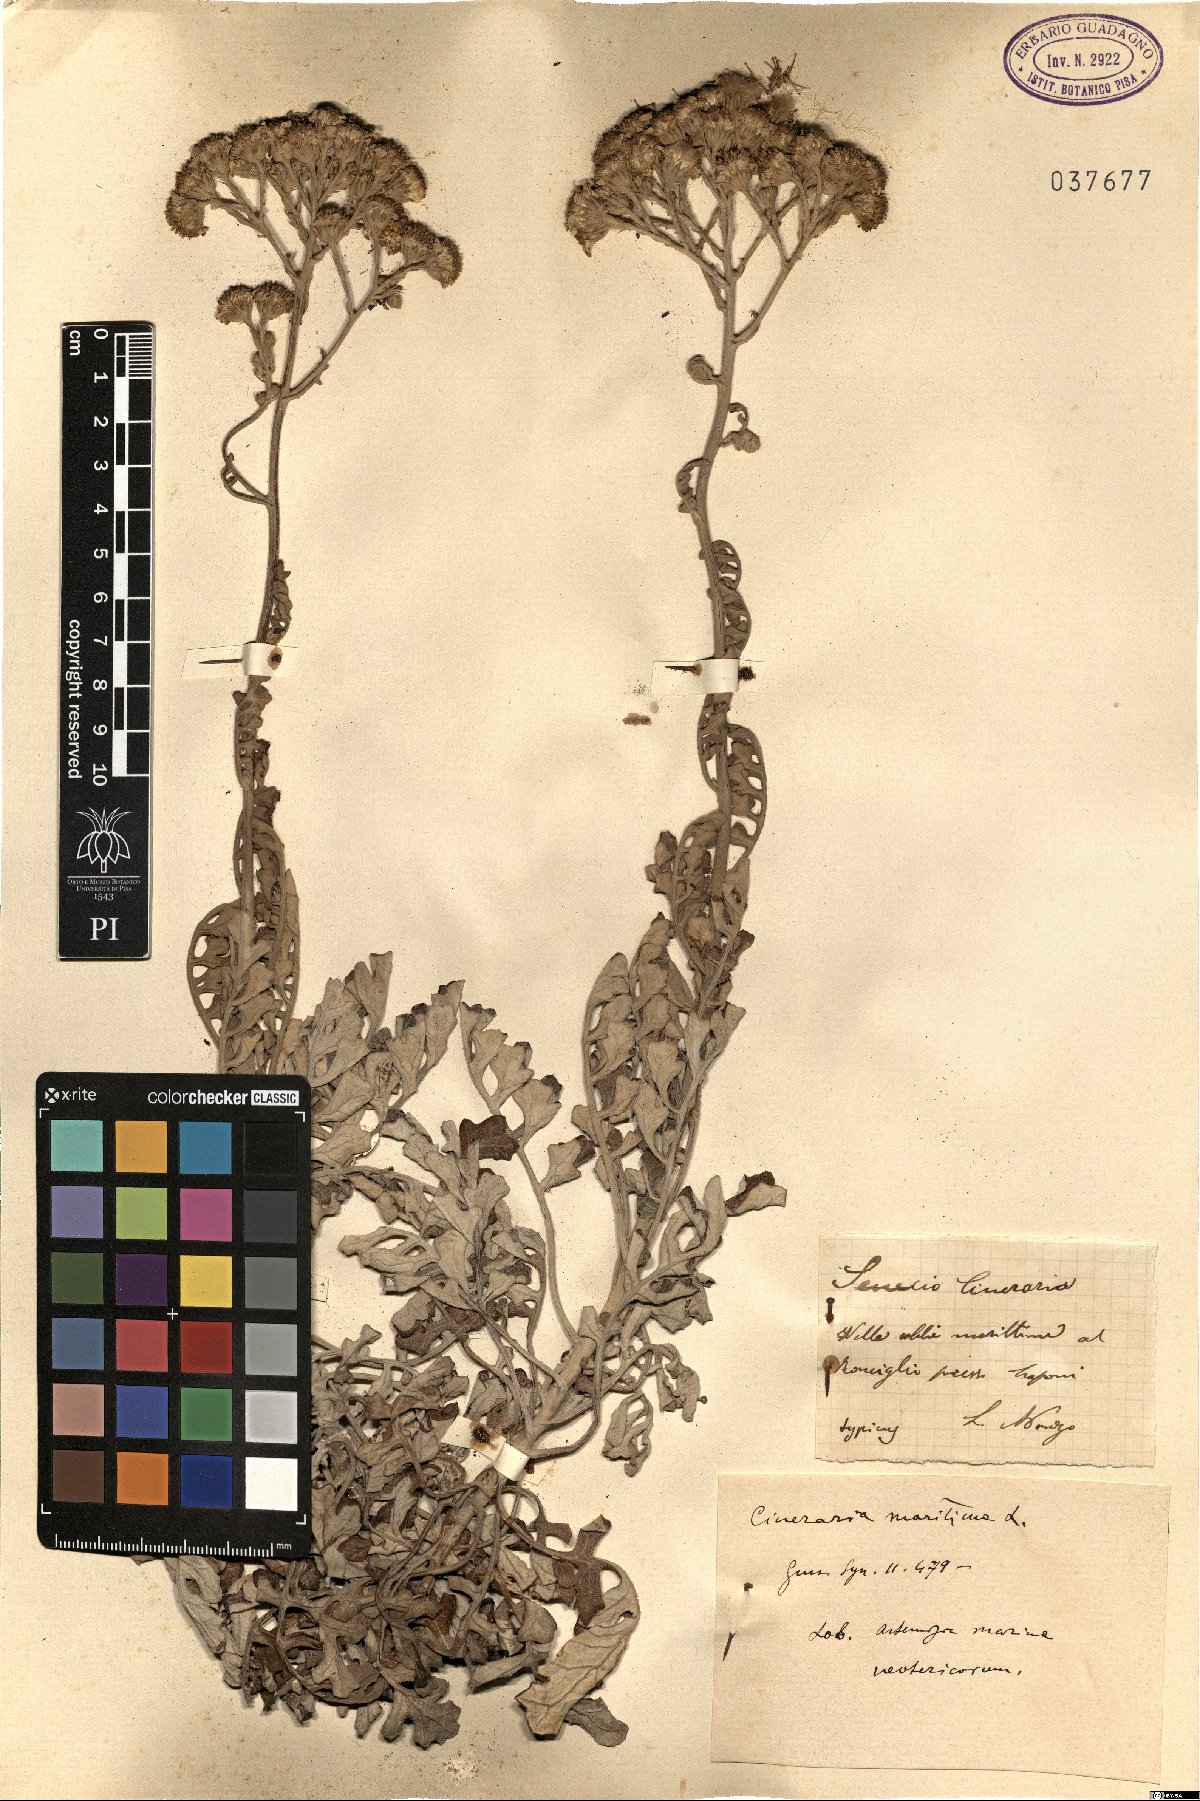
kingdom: Plantae
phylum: Tracheophyta
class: Magnoliopsida
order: Asterales
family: Asteraceae
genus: Jacobaea
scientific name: Jacobaea maritima
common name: Silver ragwort
